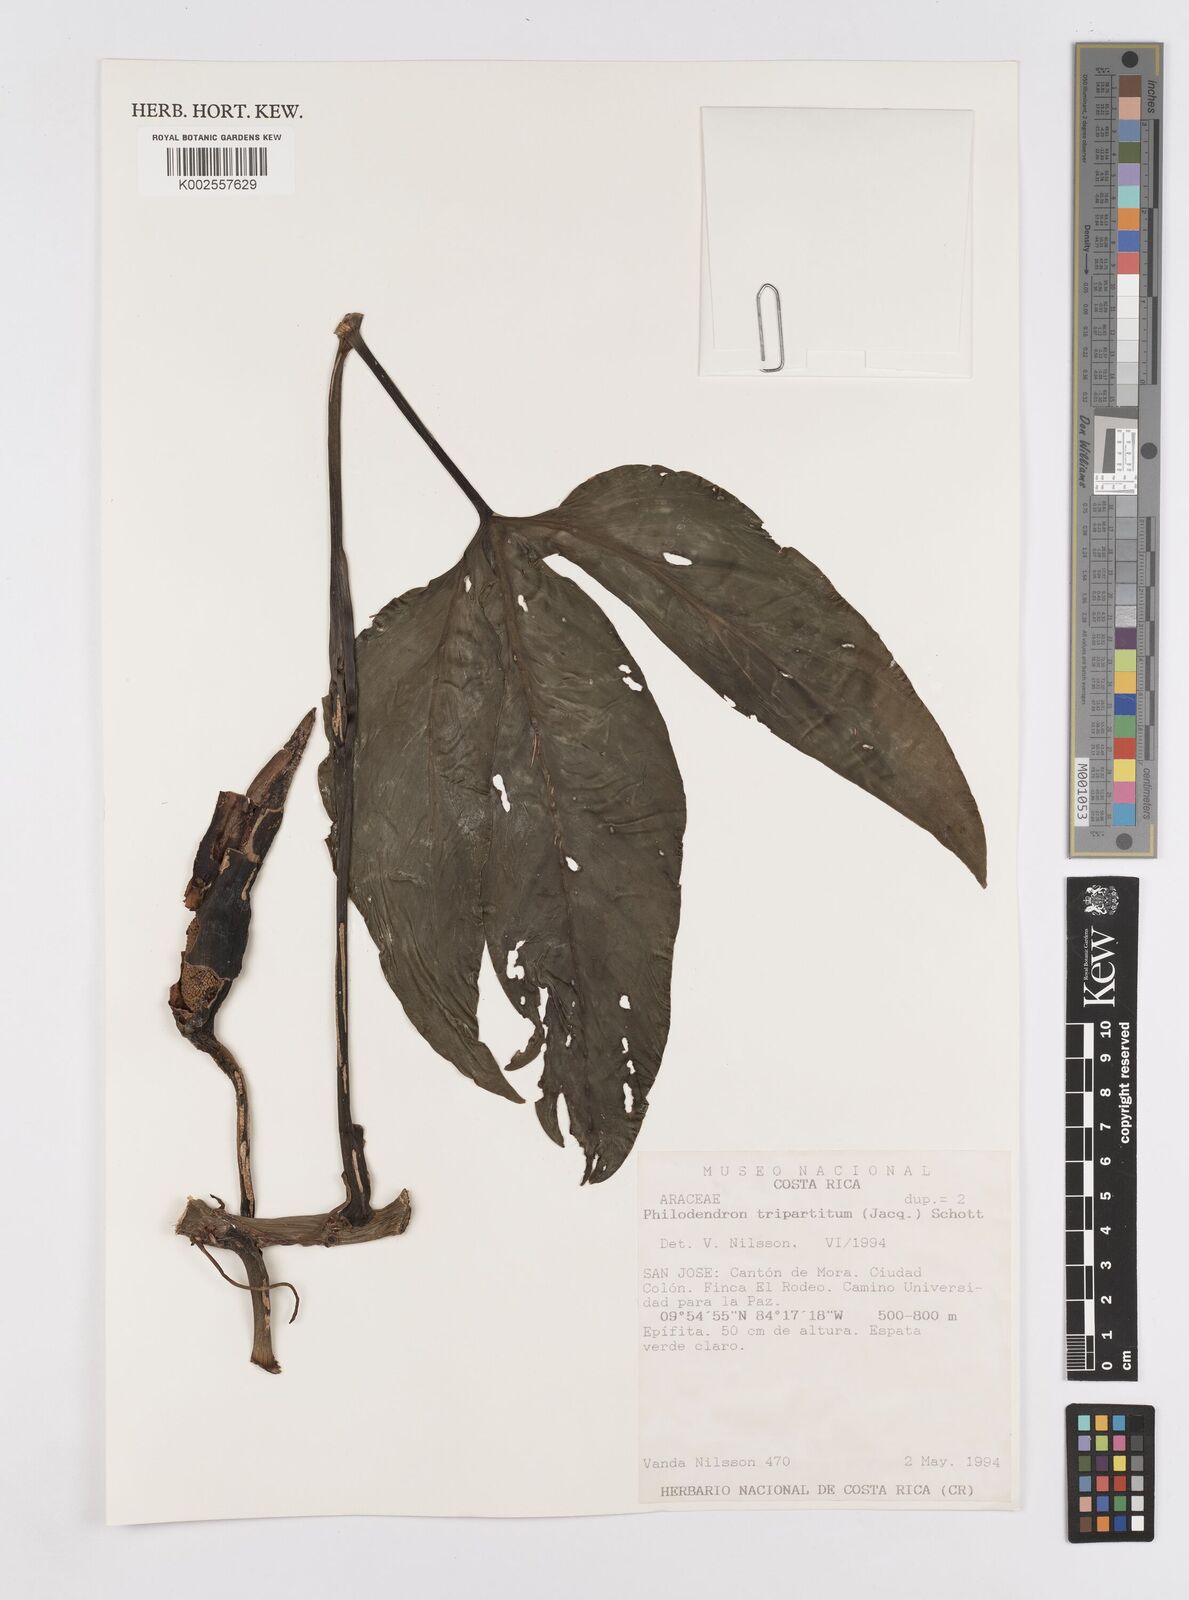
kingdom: Plantae
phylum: Tracheophyta
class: Liliopsida
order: Alismatales
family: Araceae
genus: Philodendron
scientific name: Philodendron tripartitum
